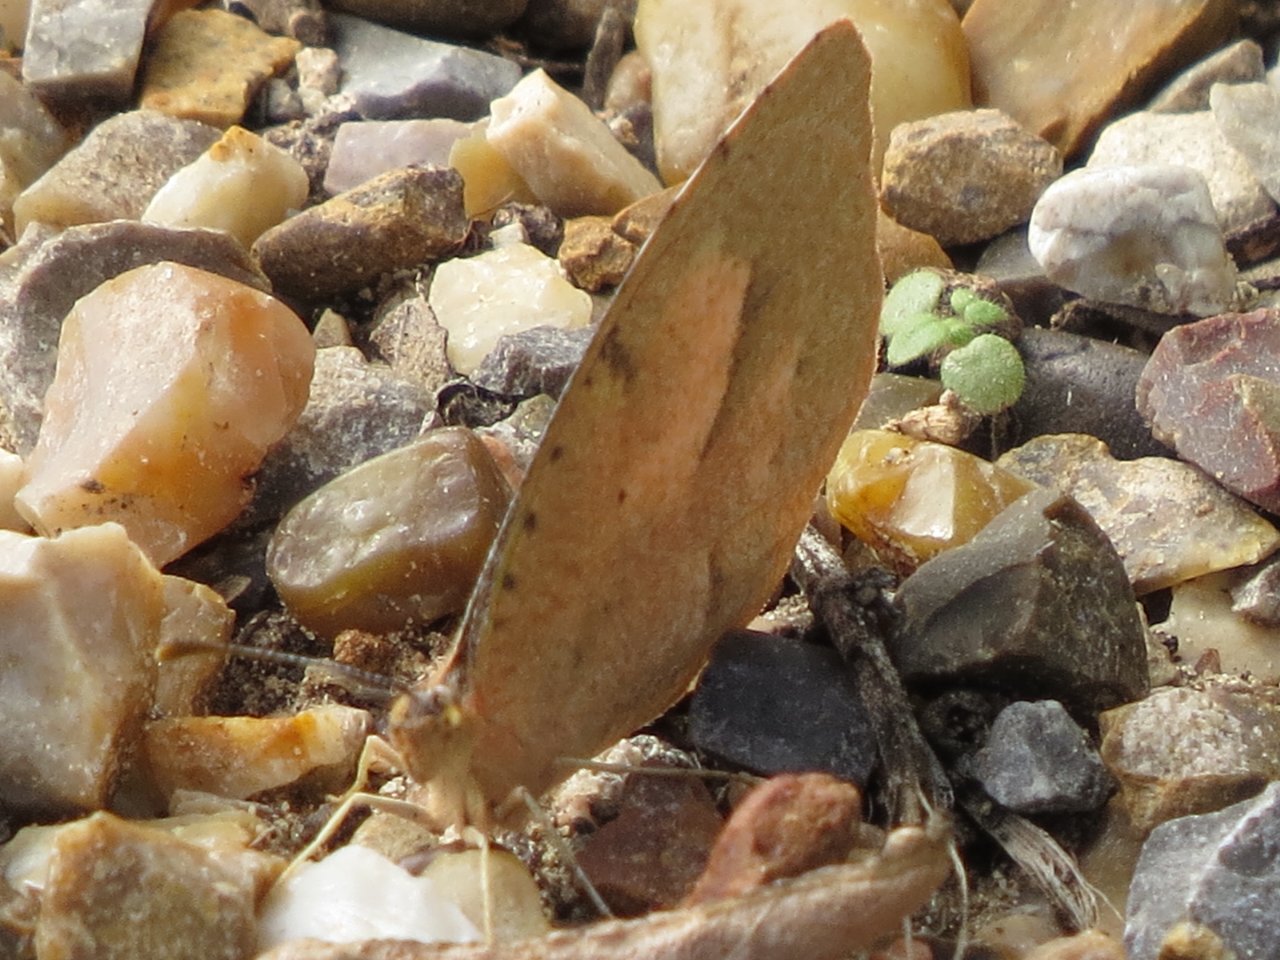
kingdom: Animalia
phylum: Arthropoda
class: Insecta
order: Lepidoptera
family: Pieridae
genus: Abaeis
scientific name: Abaeis nicippe
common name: Sleepy Orange
